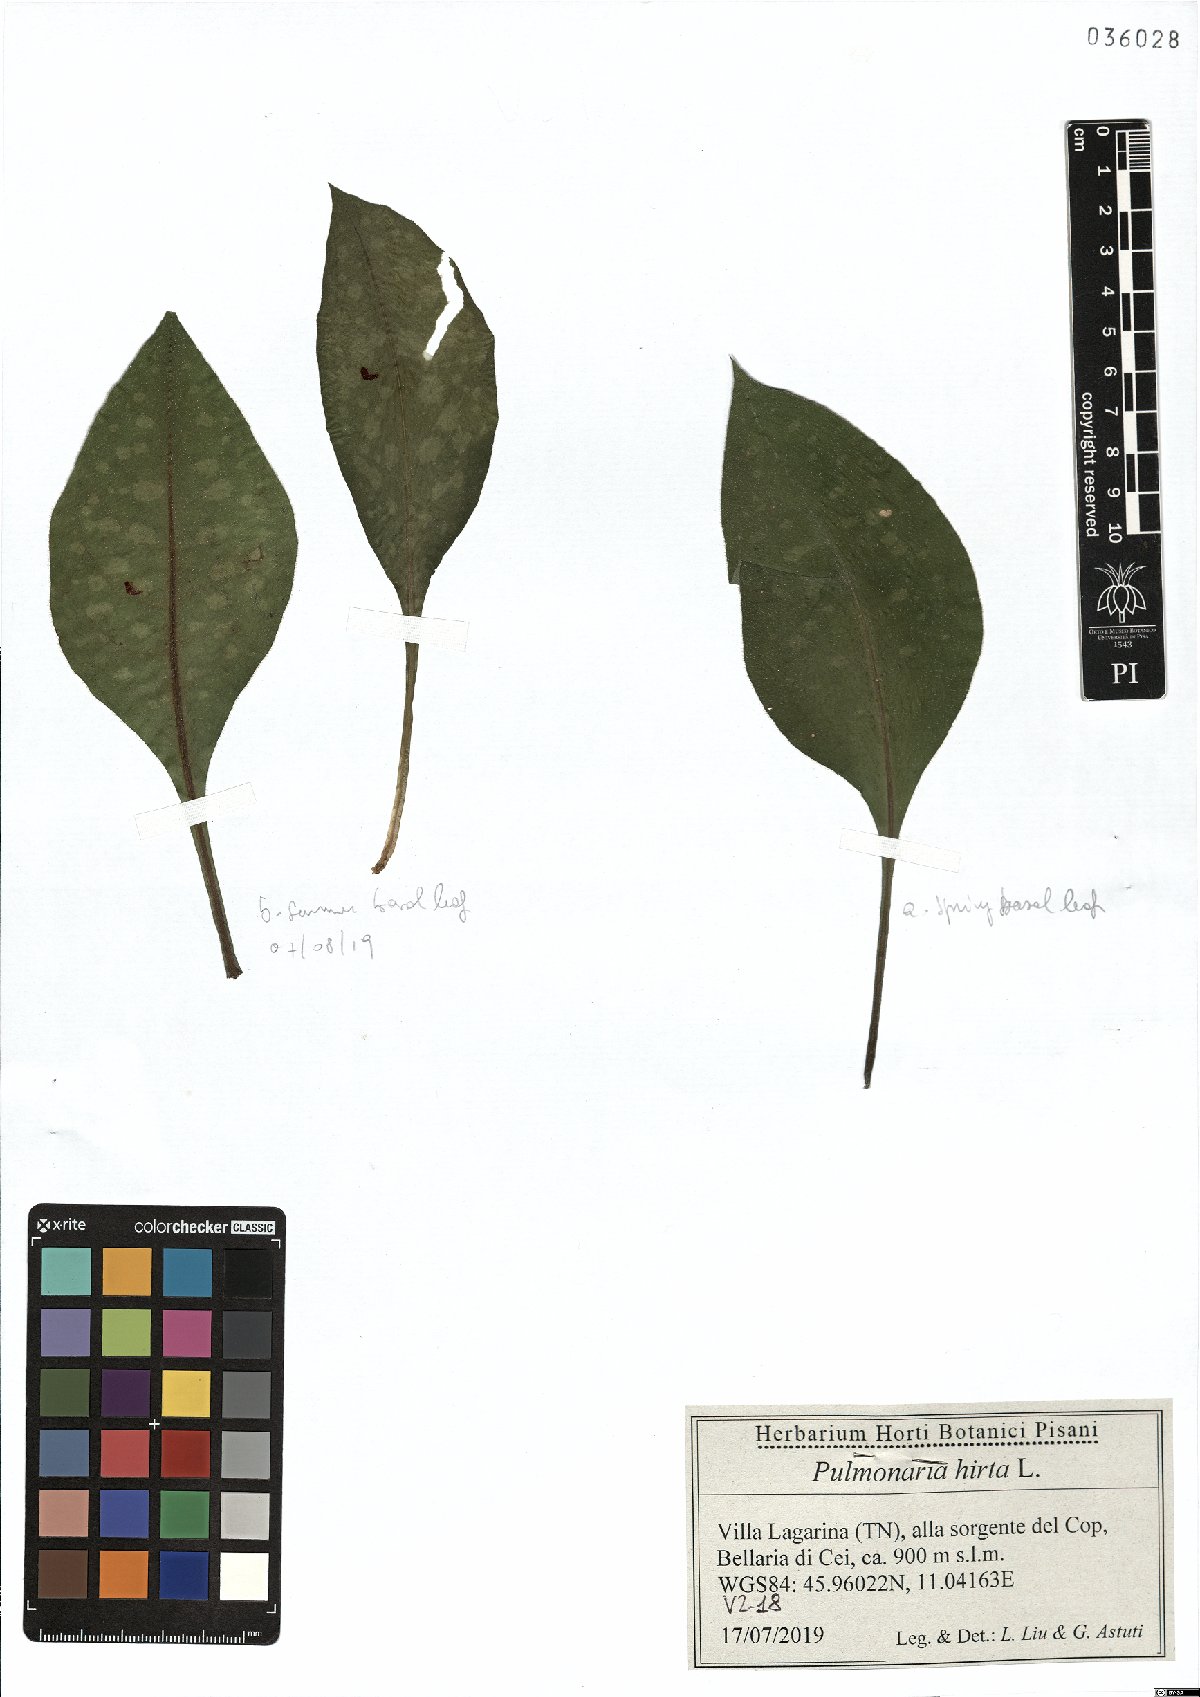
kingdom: Plantae
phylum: Tracheophyta
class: Magnoliopsida
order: Boraginales
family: Boraginaceae
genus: Pulmonaria
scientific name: Pulmonaria hirta
